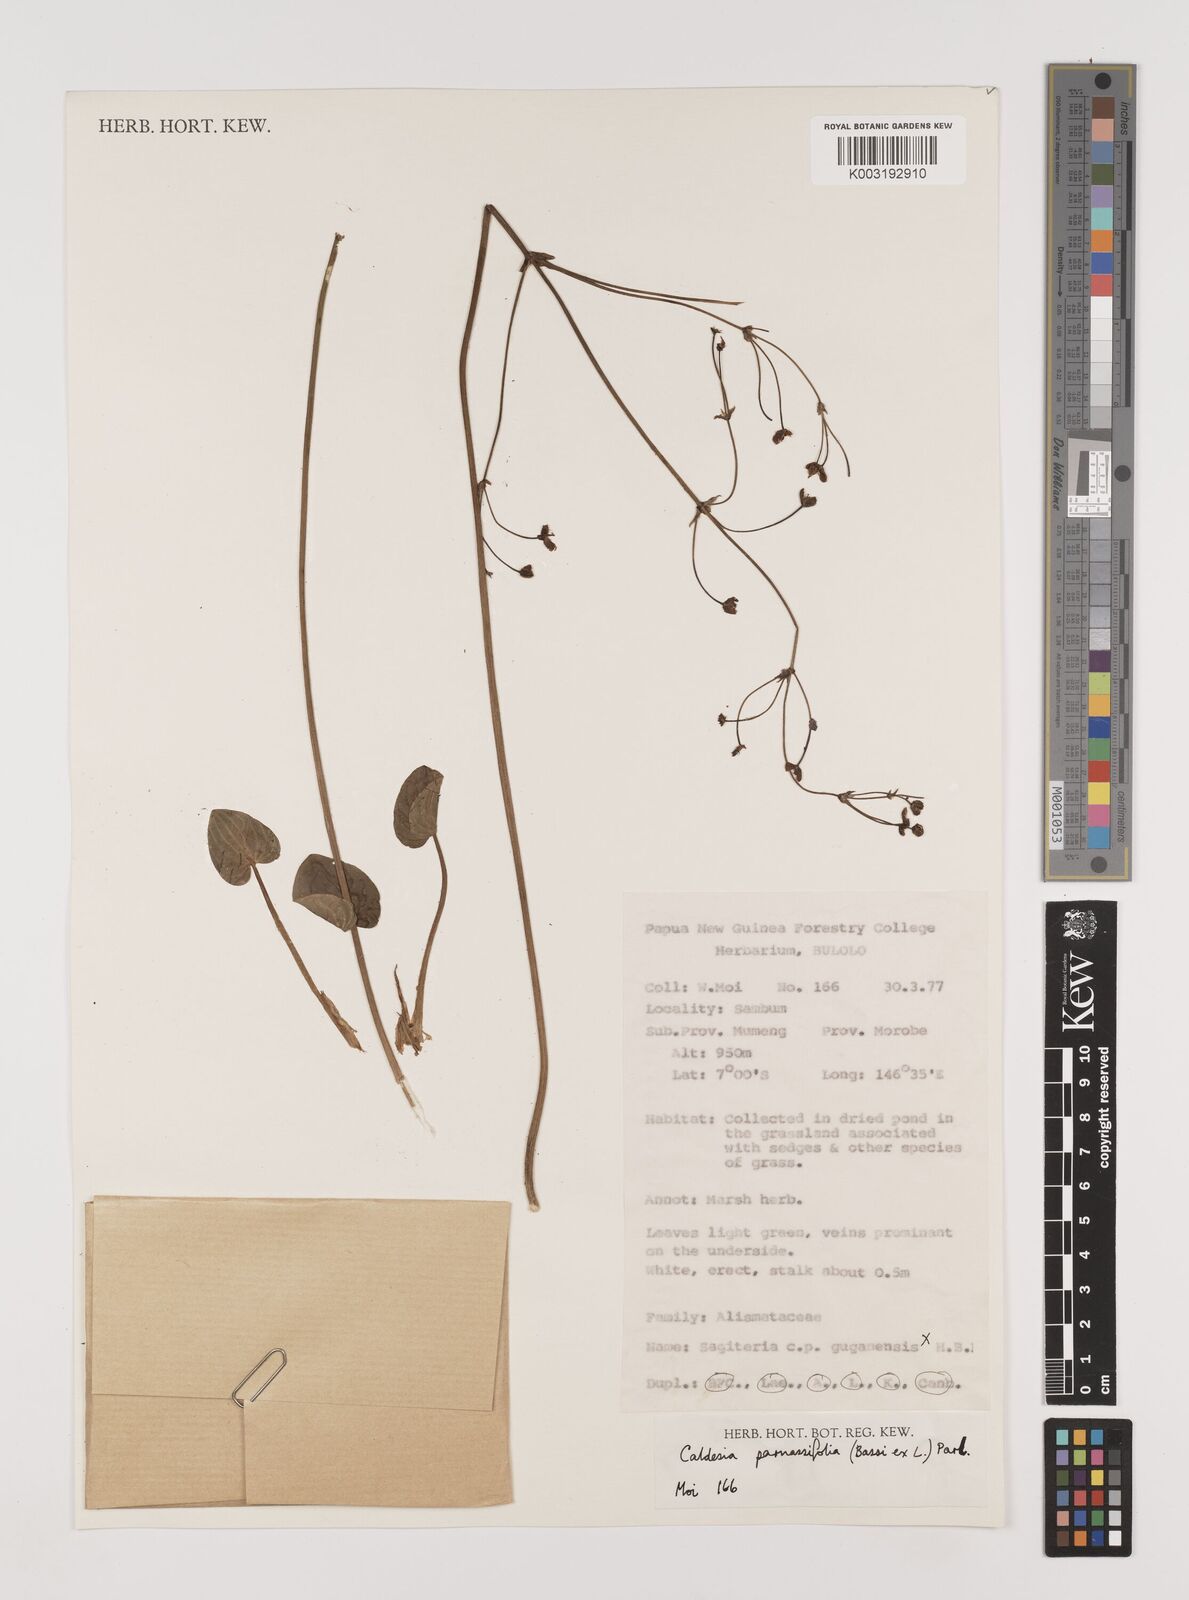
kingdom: Plantae
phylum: Tracheophyta
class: Liliopsida
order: Alismatales
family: Alismataceae
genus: Caldesia
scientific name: Caldesia parnassifolia
